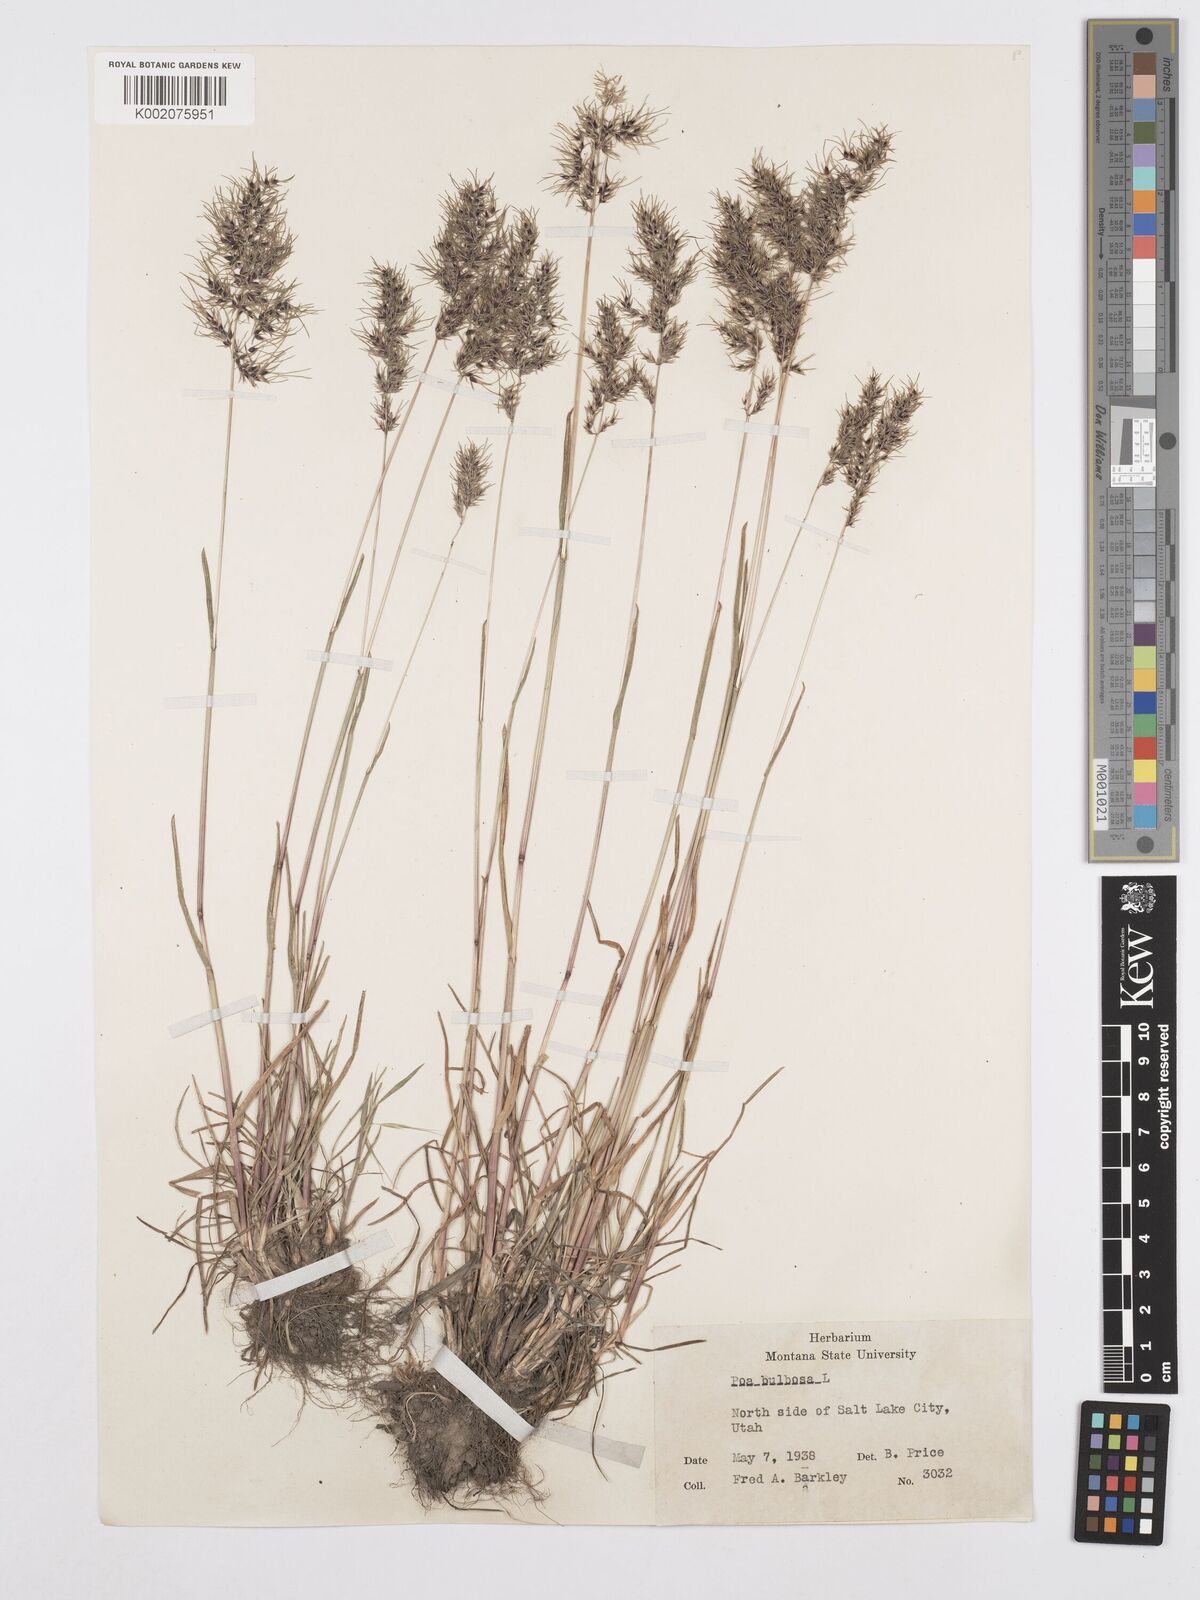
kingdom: Plantae
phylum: Tracheophyta
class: Liliopsida
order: Poales
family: Poaceae
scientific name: Poaceae
